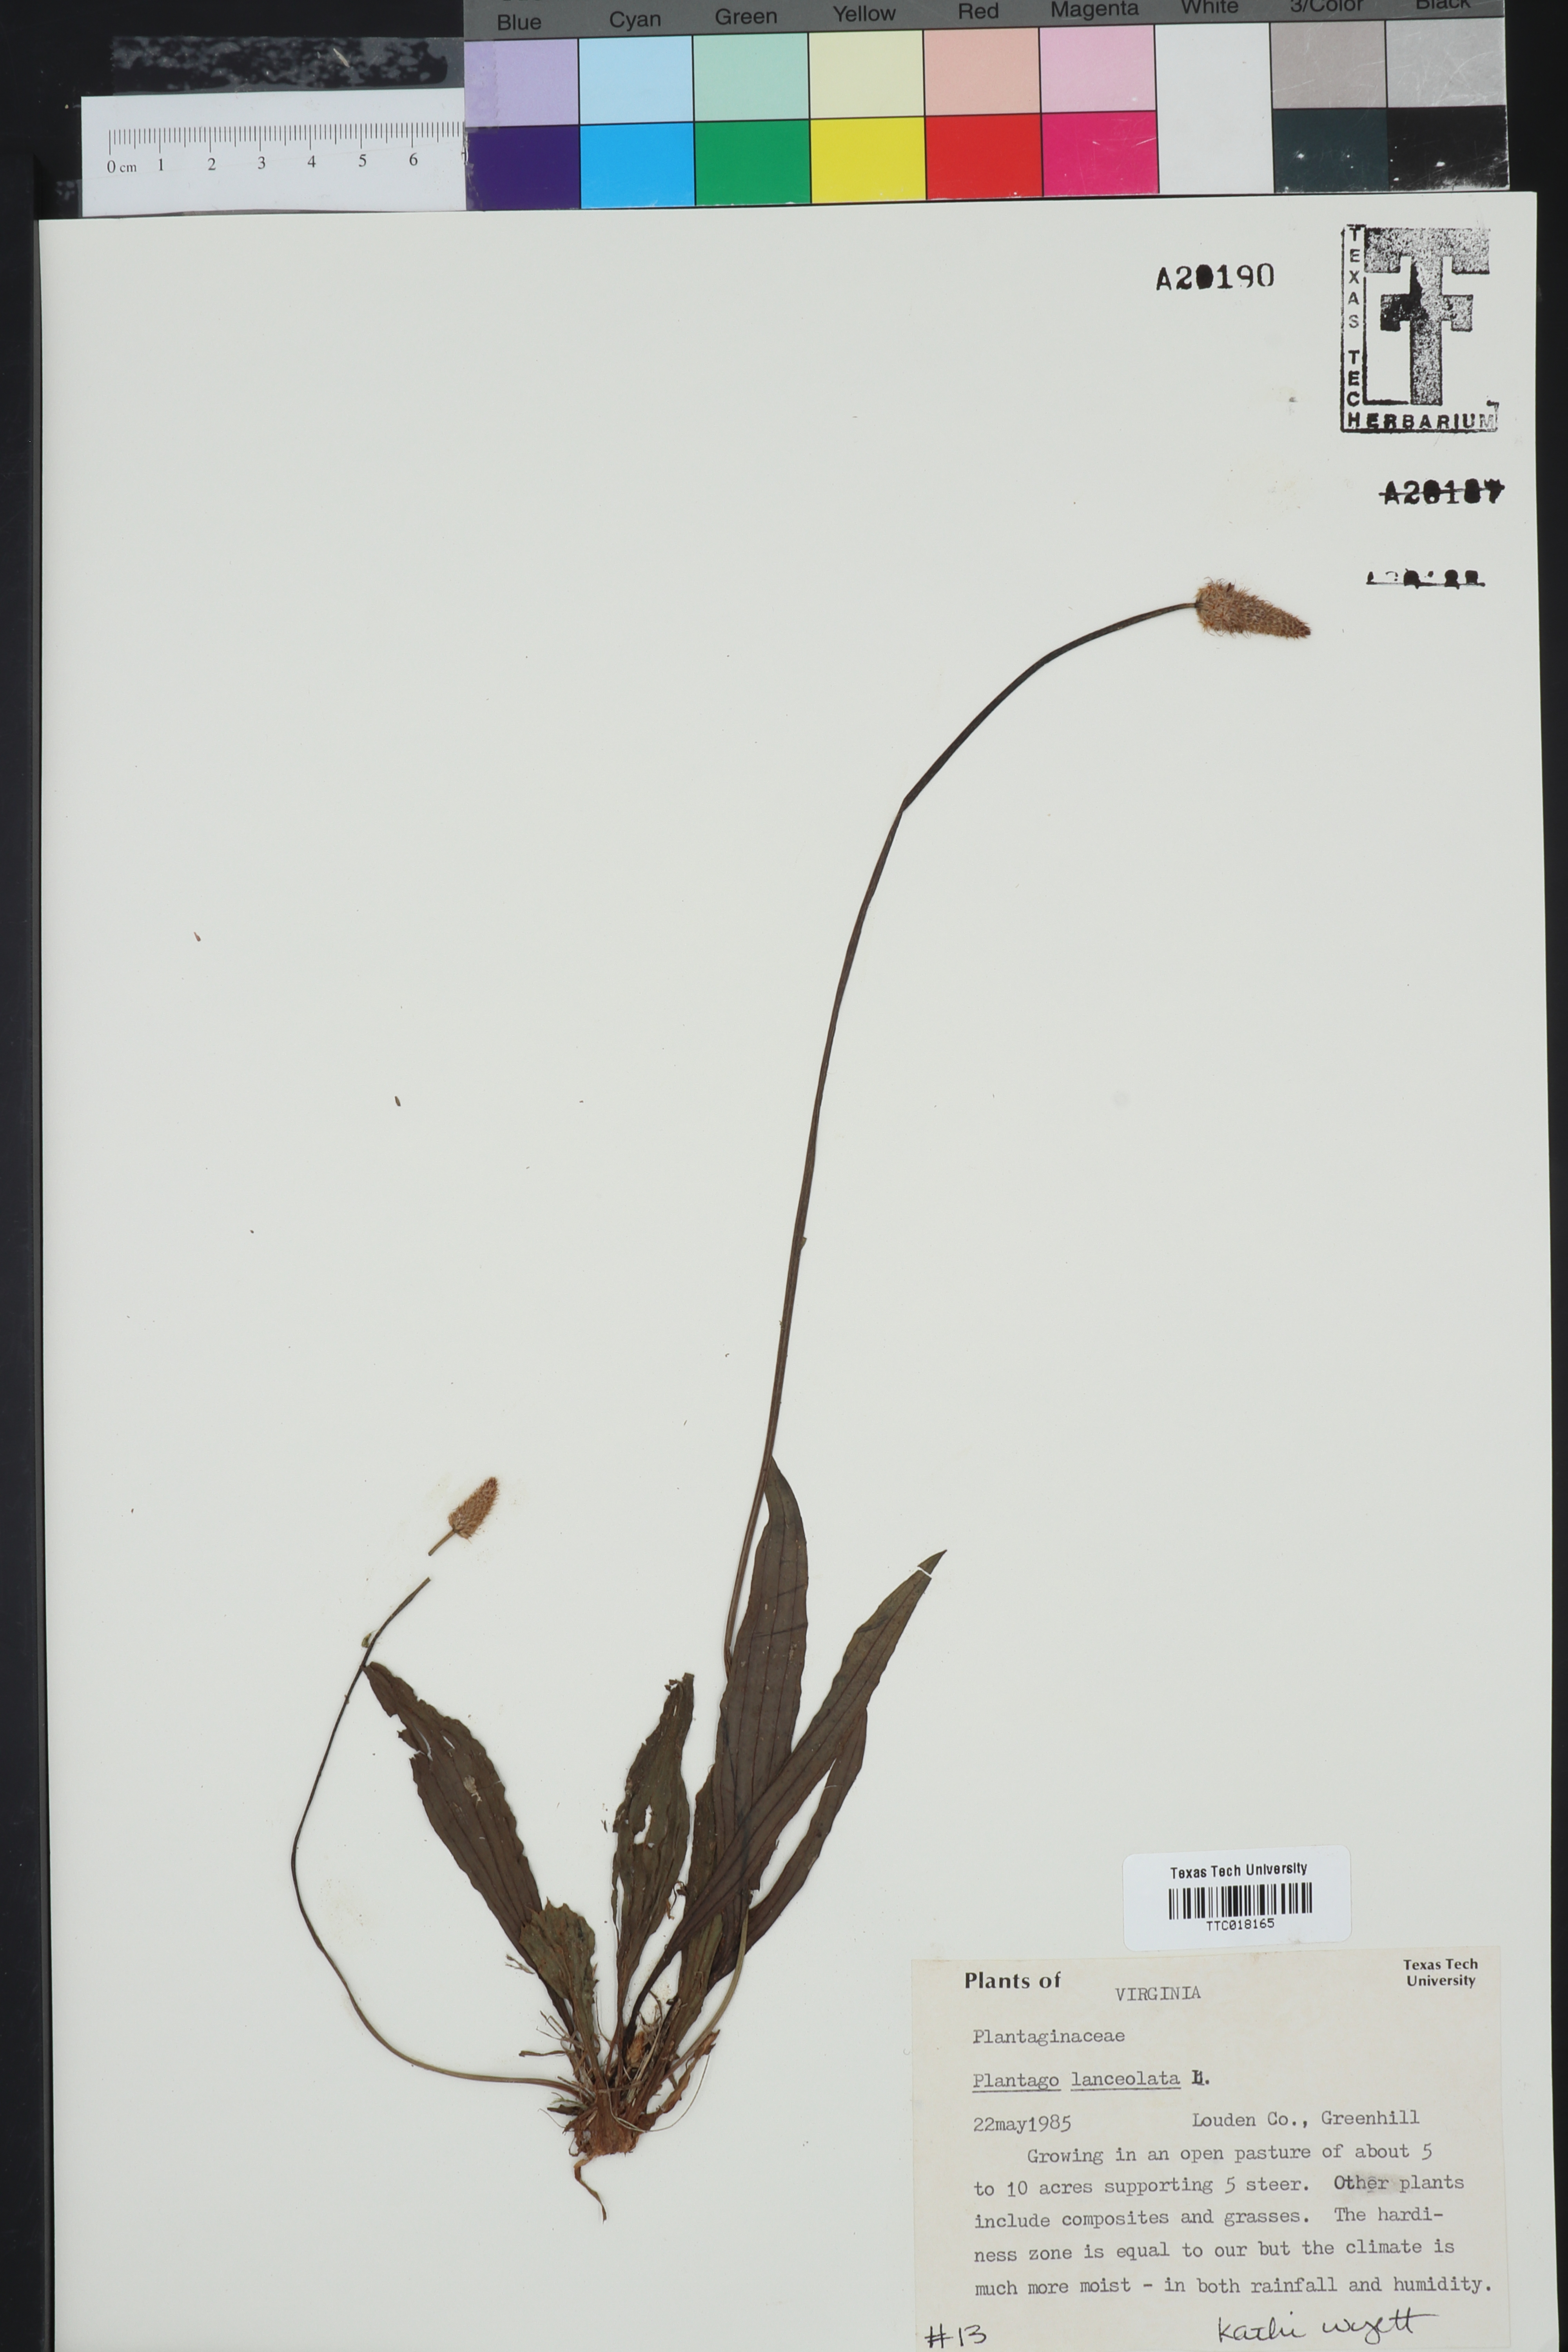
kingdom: Plantae
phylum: Tracheophyta
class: Magnoliopsida
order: Lamiales
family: Plantaginaceae
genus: Plantago
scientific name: Plantago
